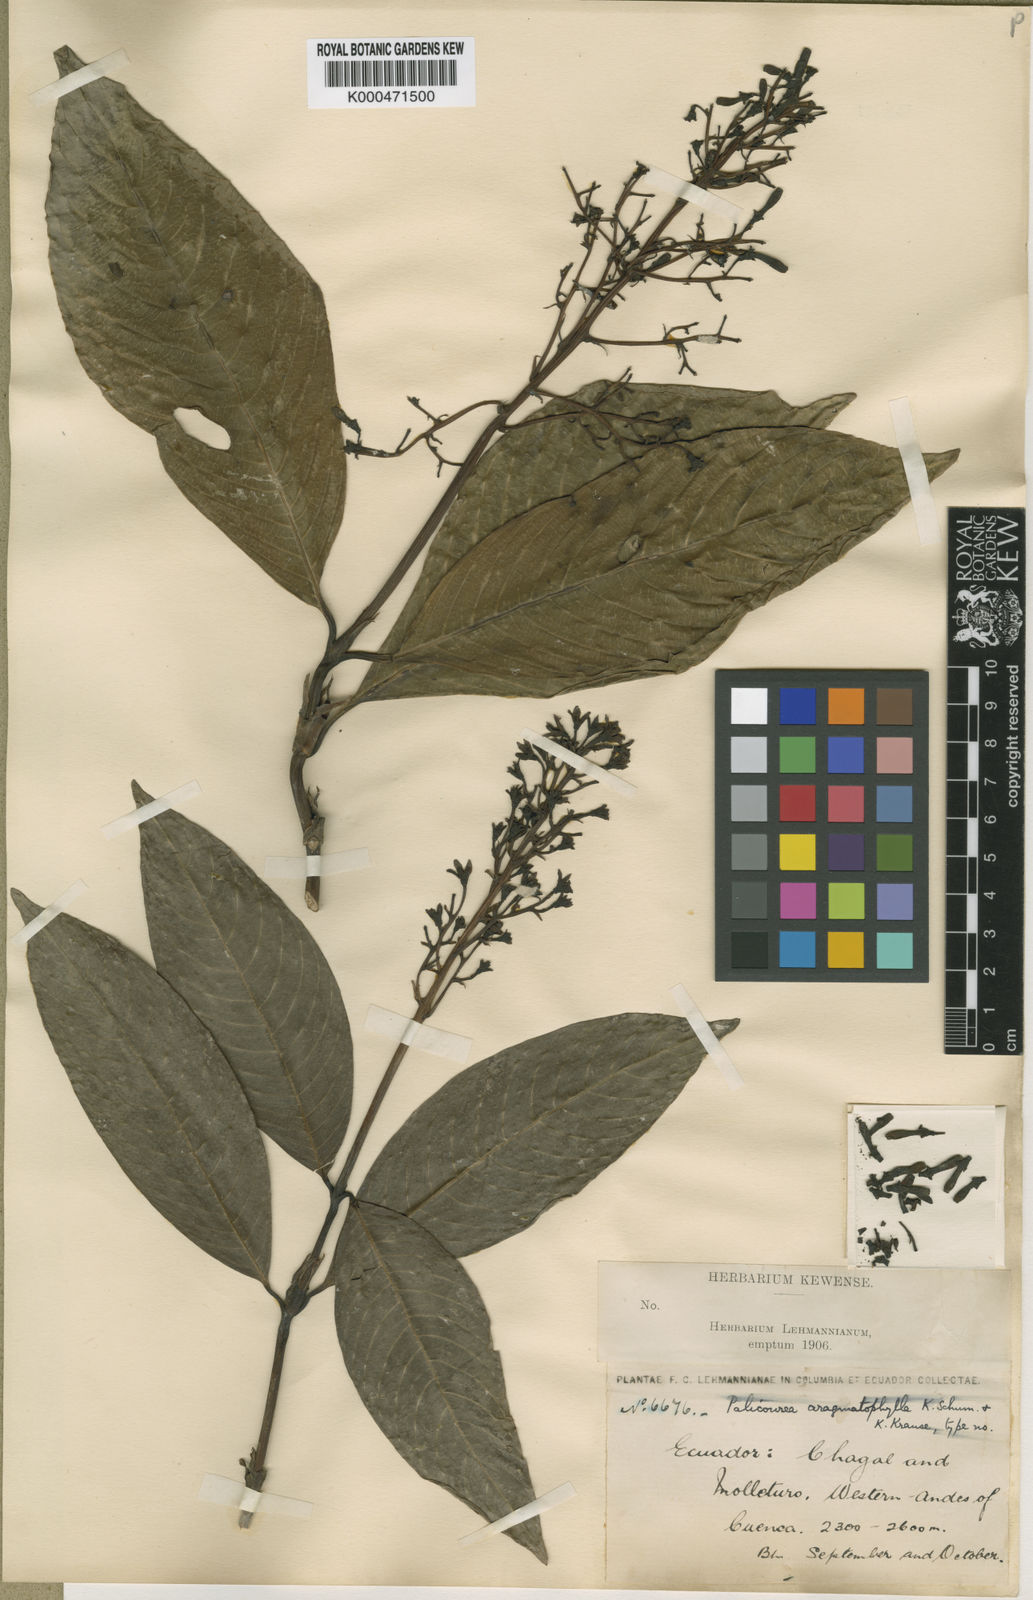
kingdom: Plantae
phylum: Tracheophyta
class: Magnoliopsida
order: Gentianales
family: Rubiaceae
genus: Palicourea
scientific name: Palicourea heterochroma
